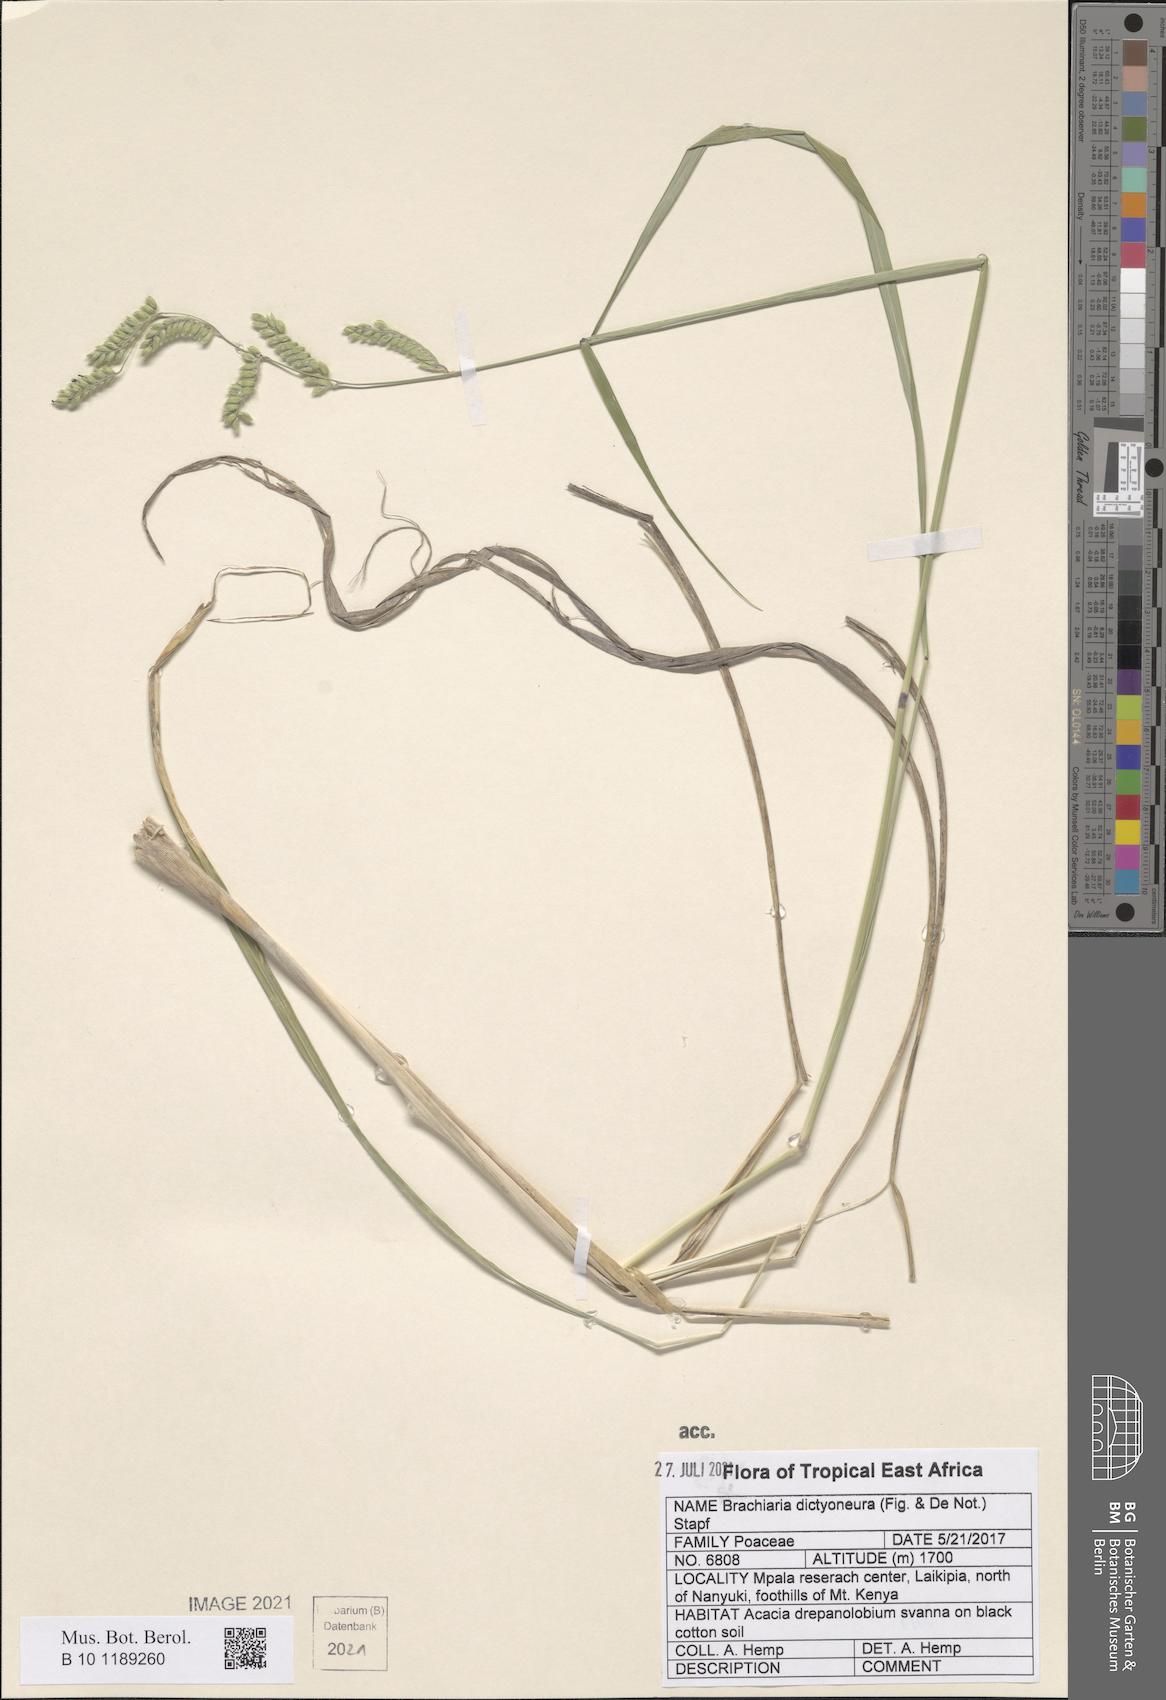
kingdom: Plantae
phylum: Tracheophyta
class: Liliopsida
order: Poales
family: Poaceae
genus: Urochloa
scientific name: Urochloa dictyoneura
